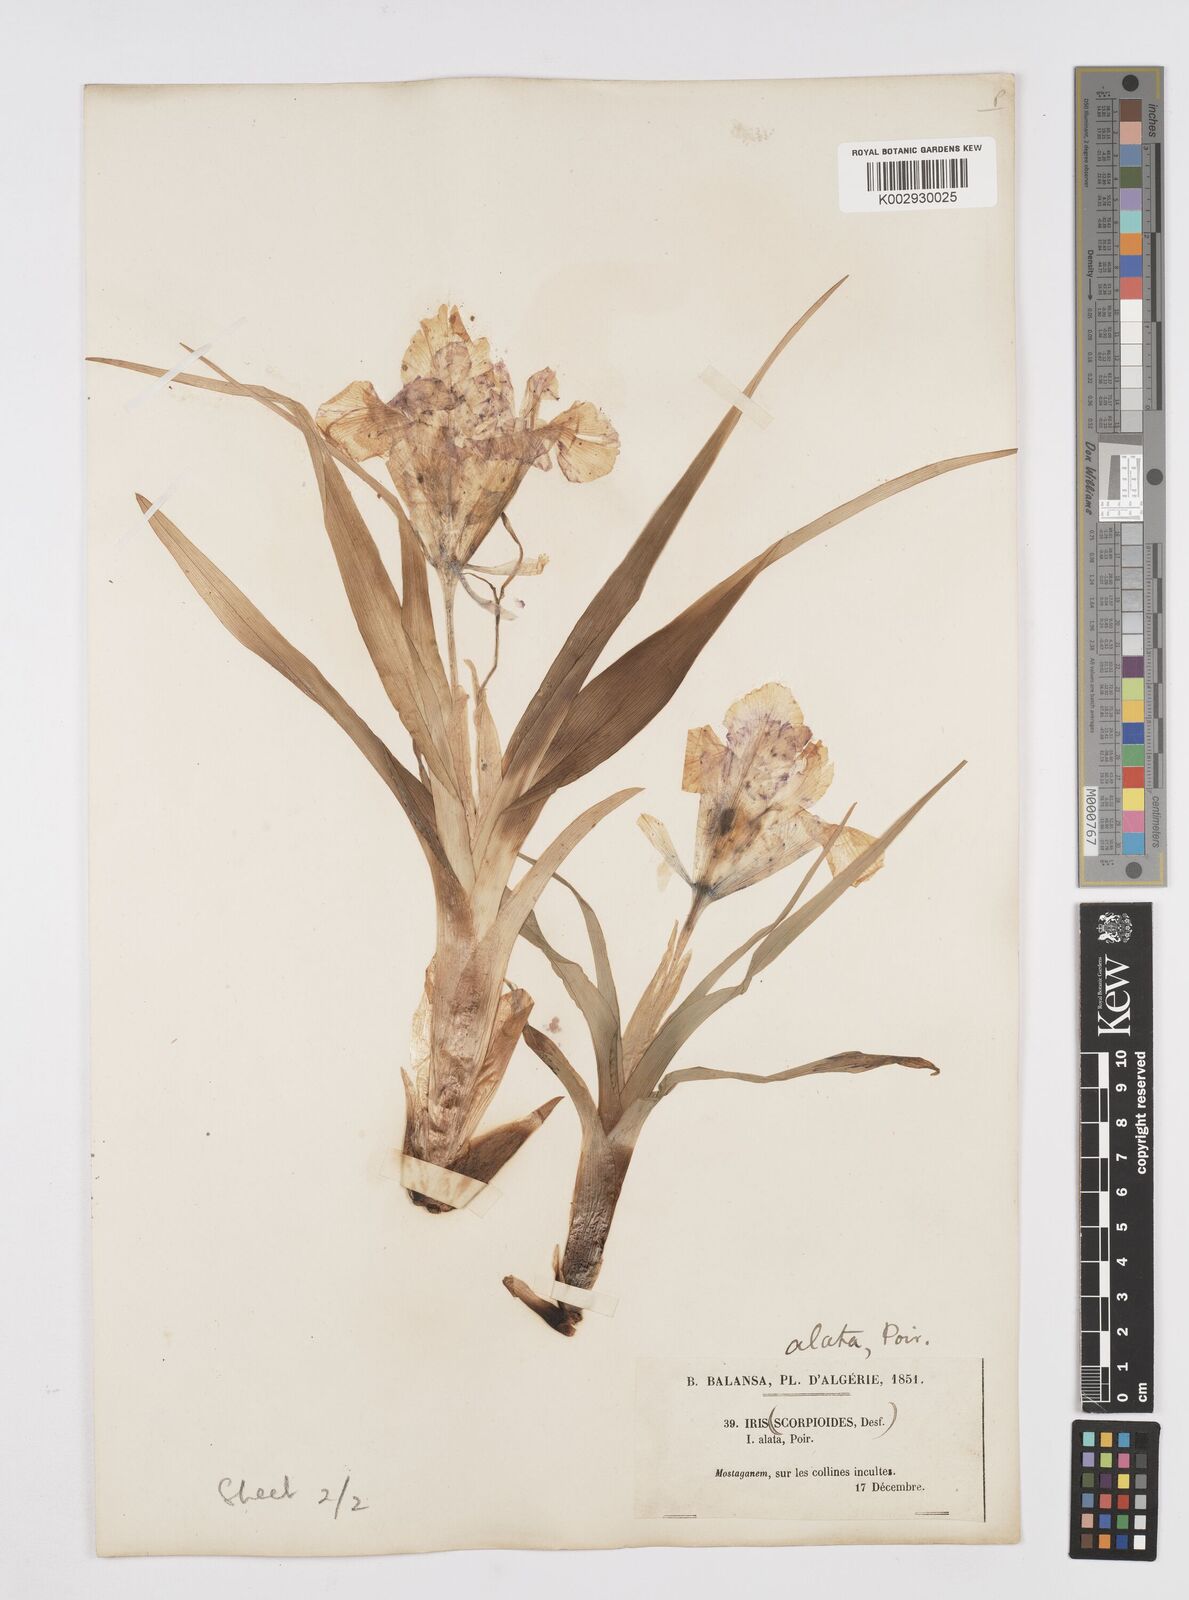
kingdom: Plantae
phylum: Tracheophyta
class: Liliopsida
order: Asparagales
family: Iridaceae
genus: Iris
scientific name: Iris planifolia
